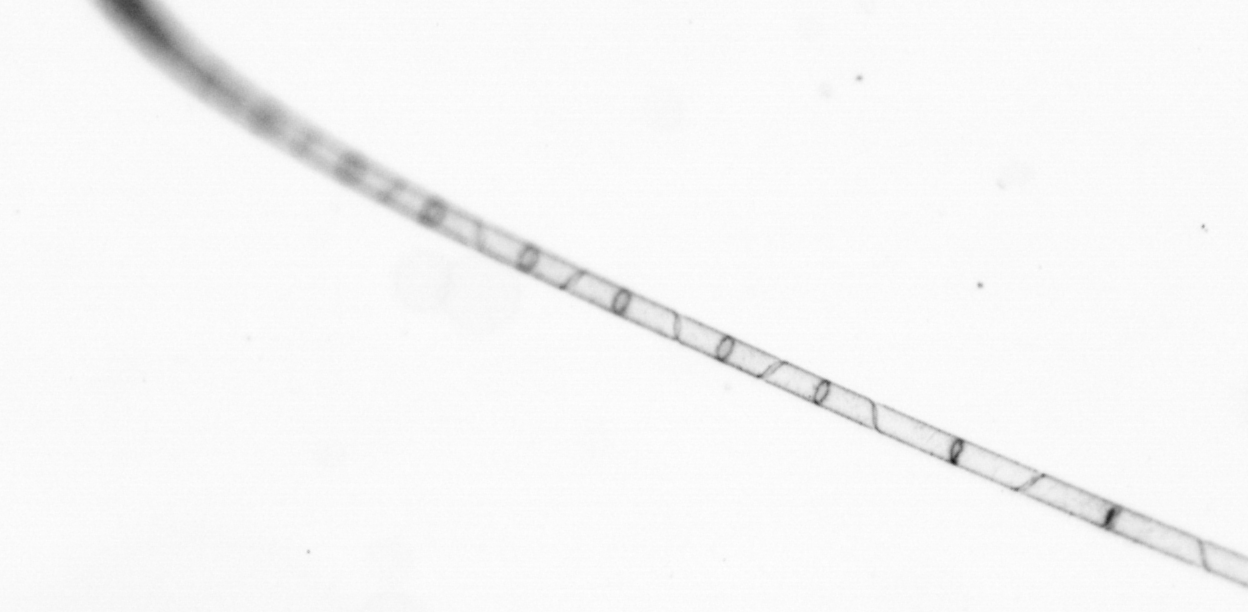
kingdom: Chromista
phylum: Ochrophyta
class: Bacillariophyceae
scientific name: Bacillariophyceae
